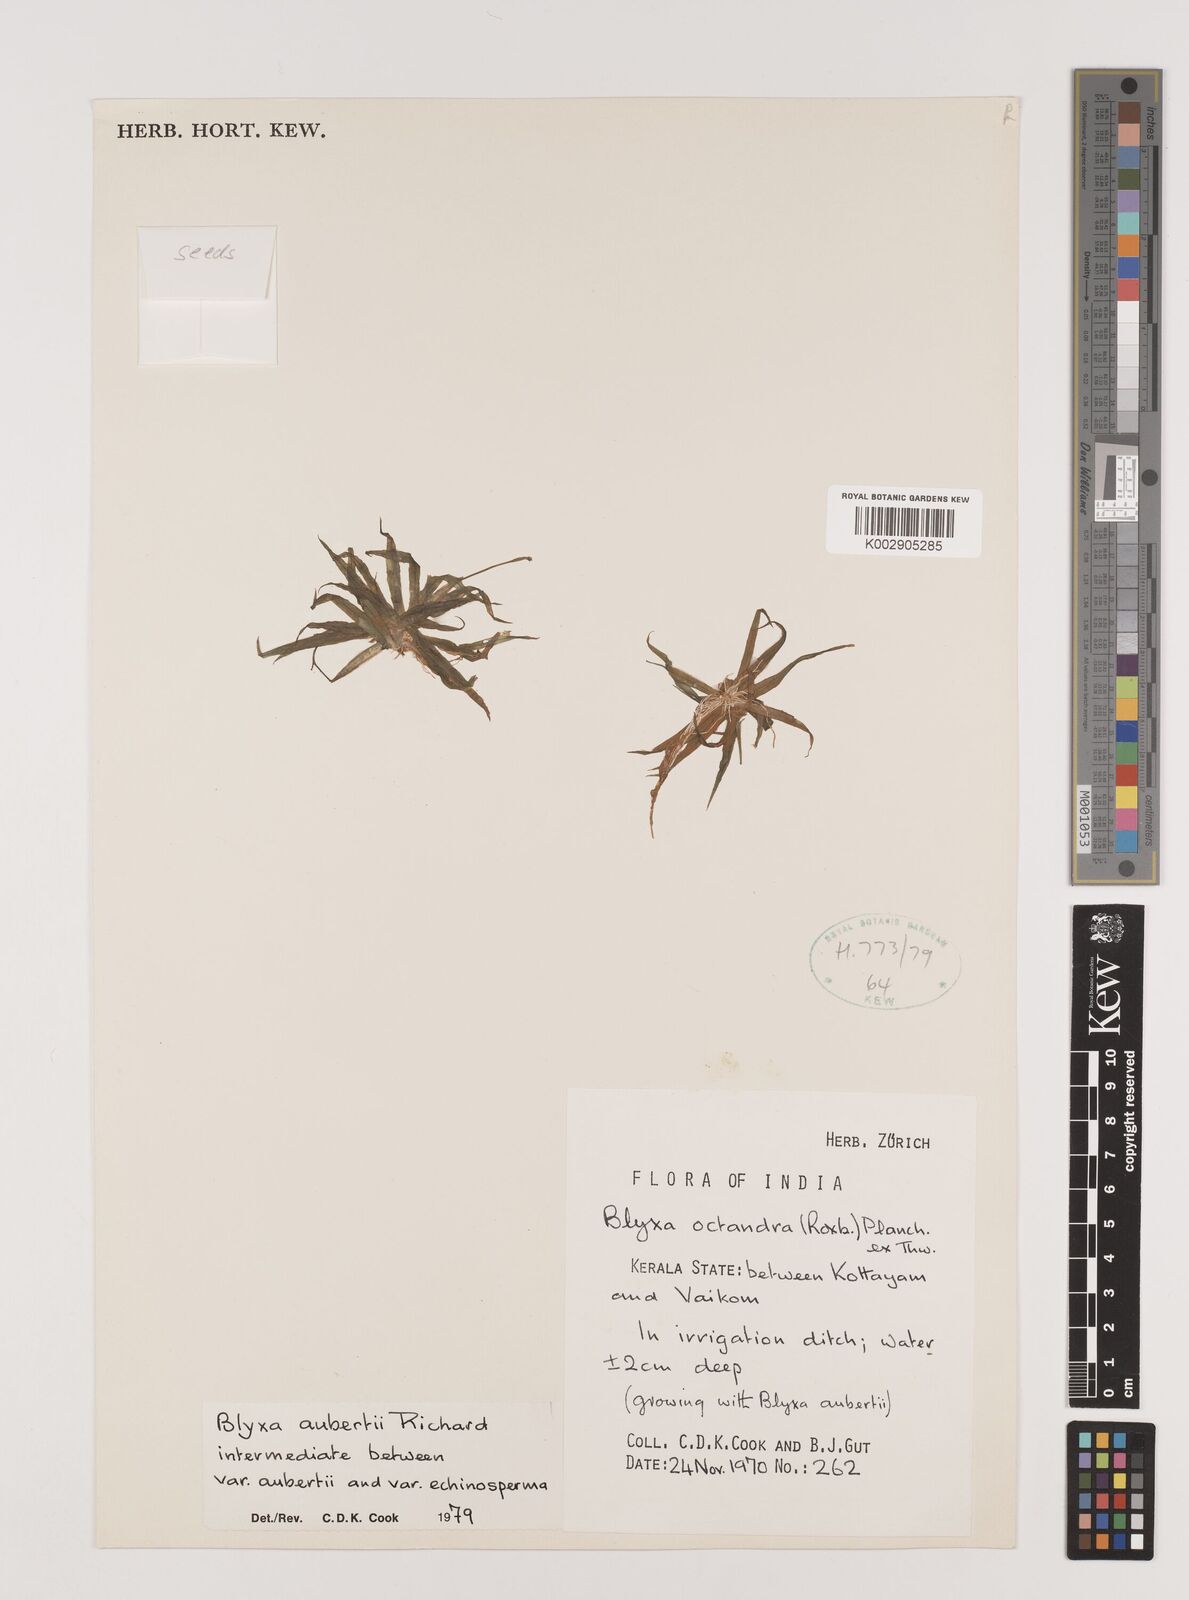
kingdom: Plantae
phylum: Tracheophyta
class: Liliopsida
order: Alismatales
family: Hydrocharitaceae
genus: Blyxa
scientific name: Blyxa aubertii
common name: Roundfruit blyxa
